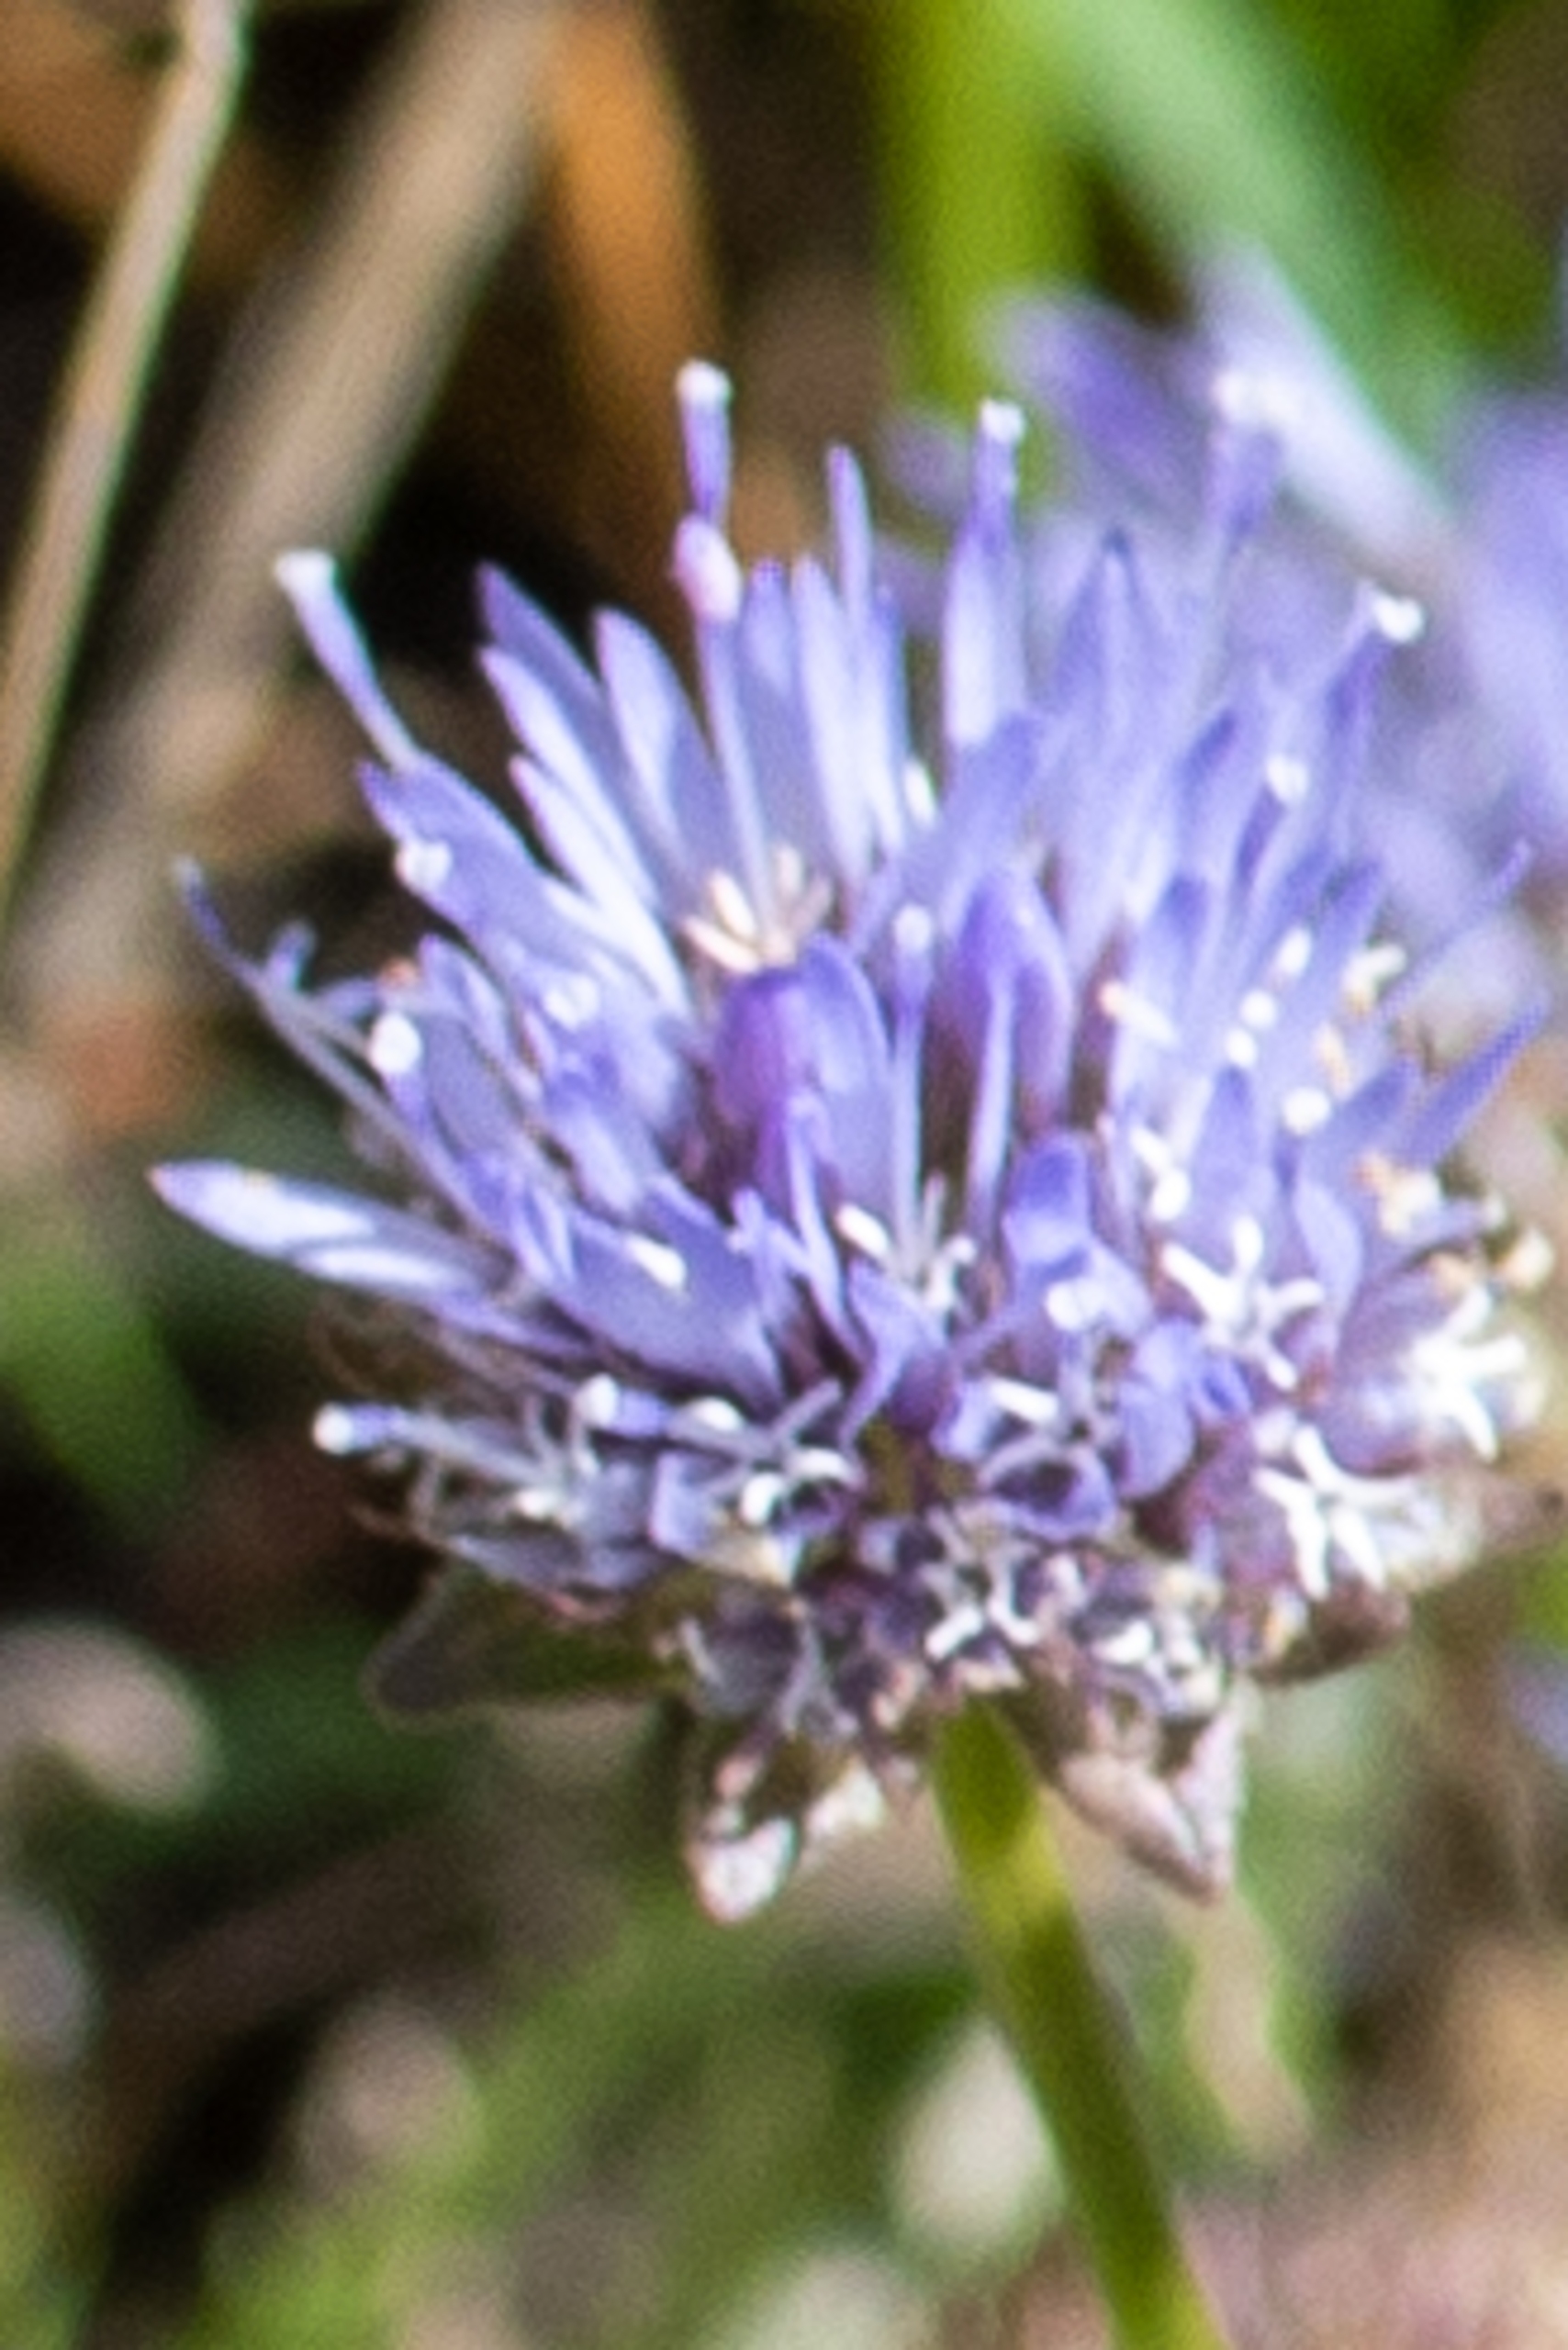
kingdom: Plantae
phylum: Tracheophyta
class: Magnoliopsida
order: Asterales
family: Campanulaceae
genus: Jasione
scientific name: Jasione montana
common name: Blåmunke
